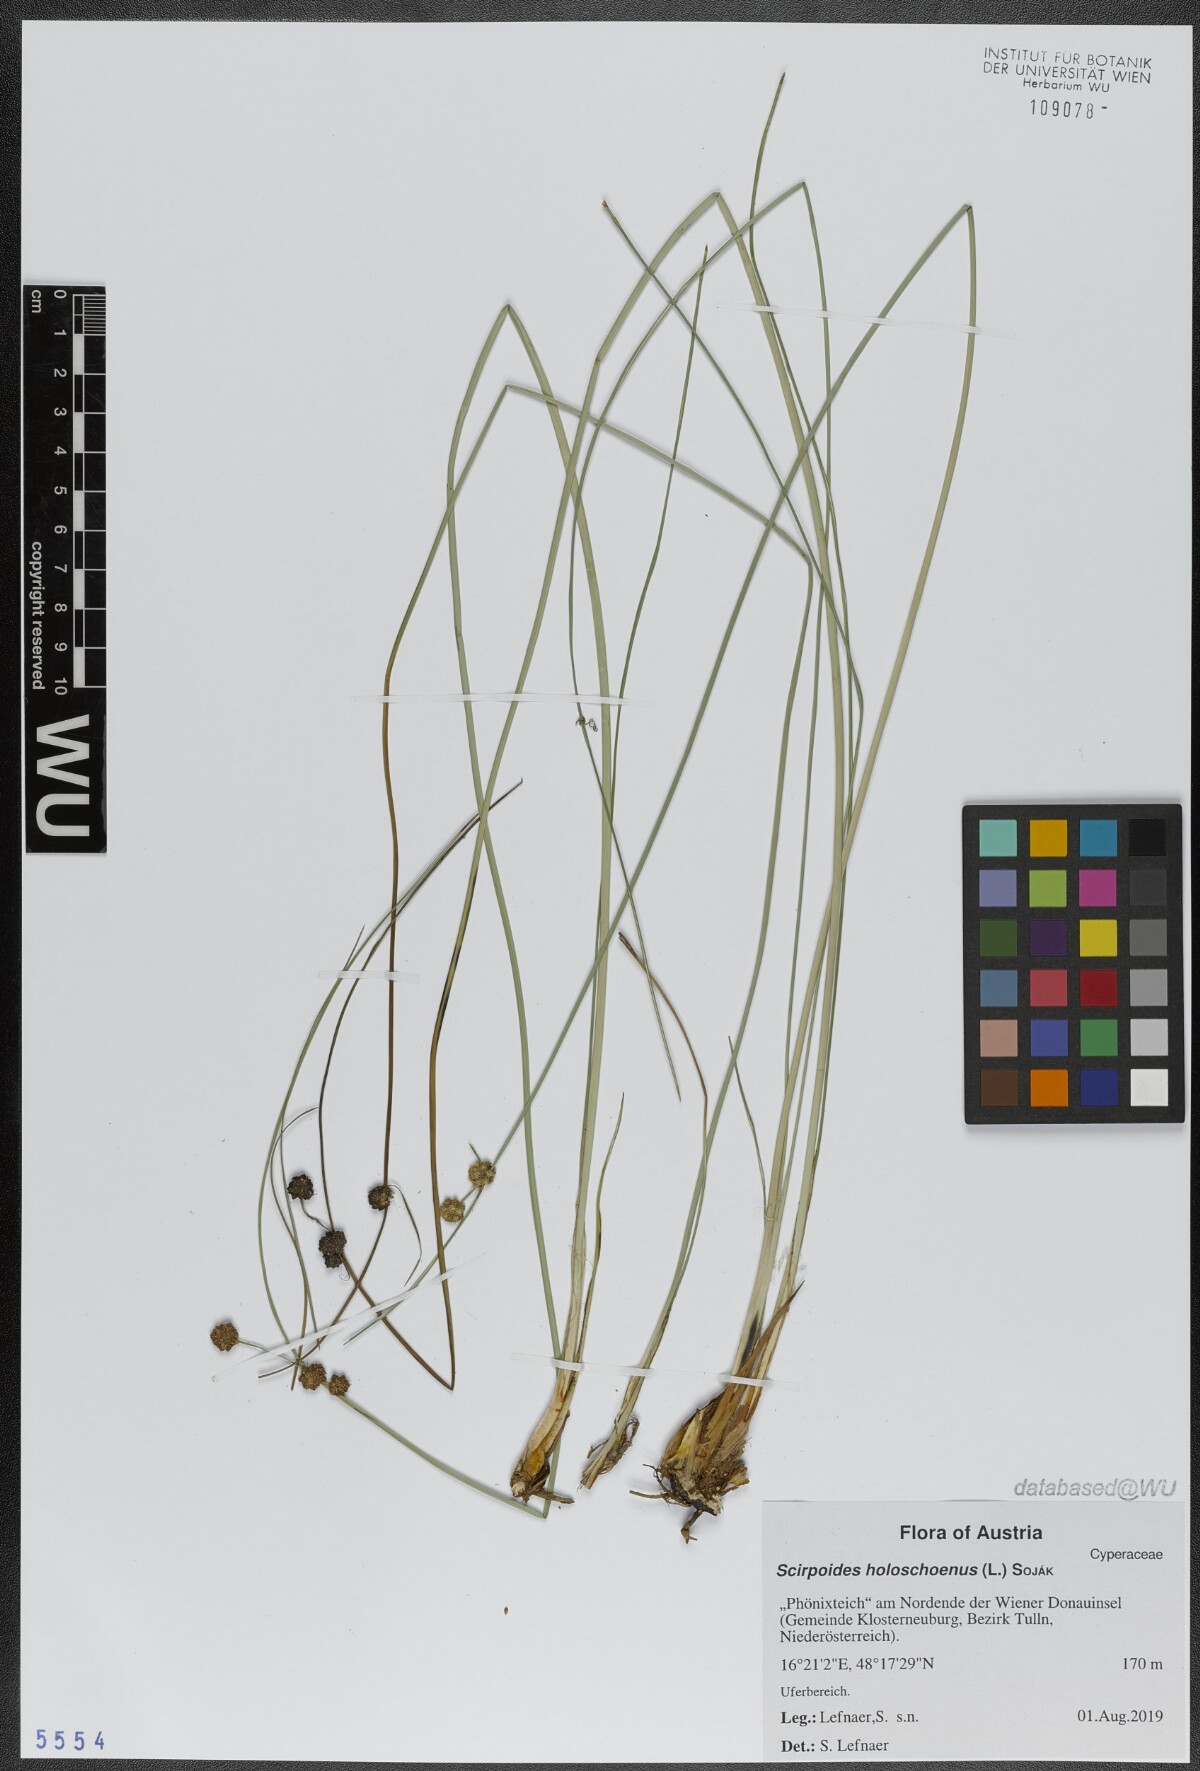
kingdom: Plantae
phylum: Tracheophyta
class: Liliopsida
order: Poales
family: Cyperaceae
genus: Scirpoides
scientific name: Scirpoides holoschoenus
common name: Round-headed club-rush
